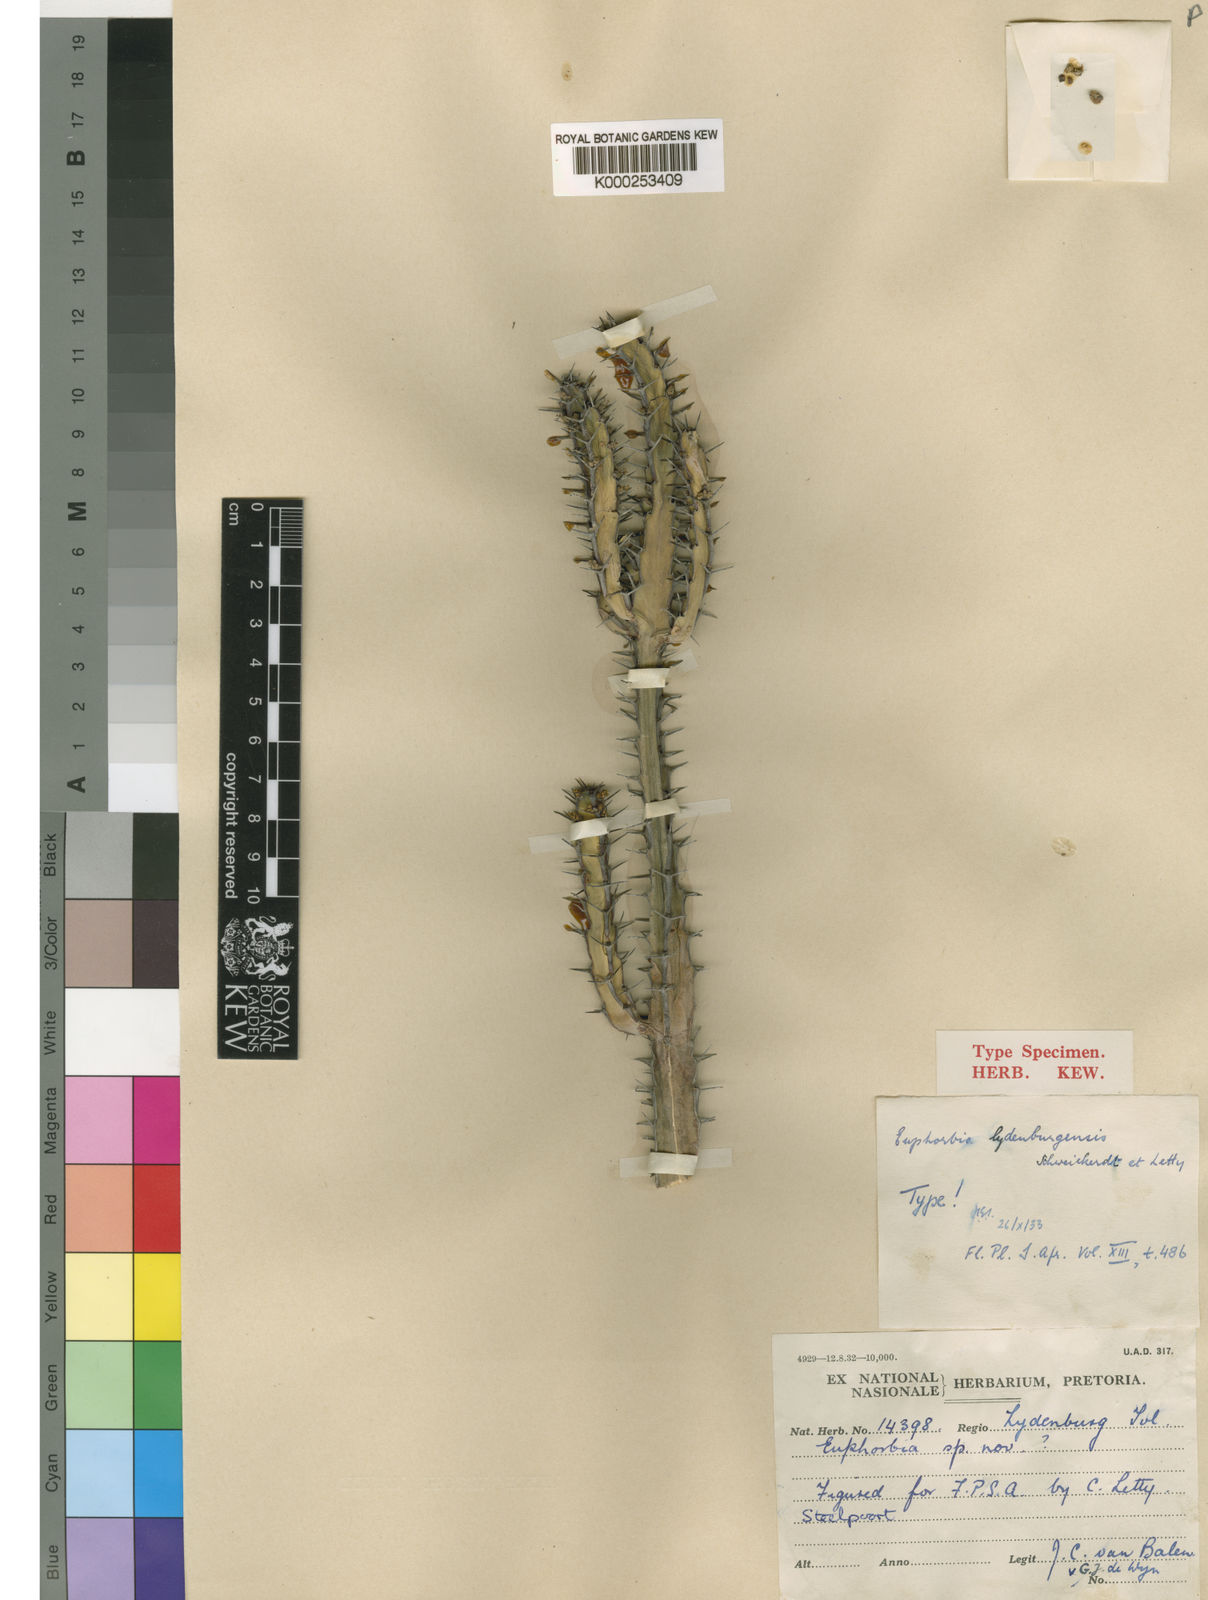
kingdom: Plantae
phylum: Tracheophyta
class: Magnoliopsida
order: Malpighiales
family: Euphorbiaceae
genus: Euphorbia
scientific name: Euphorbia lydenburgensis
